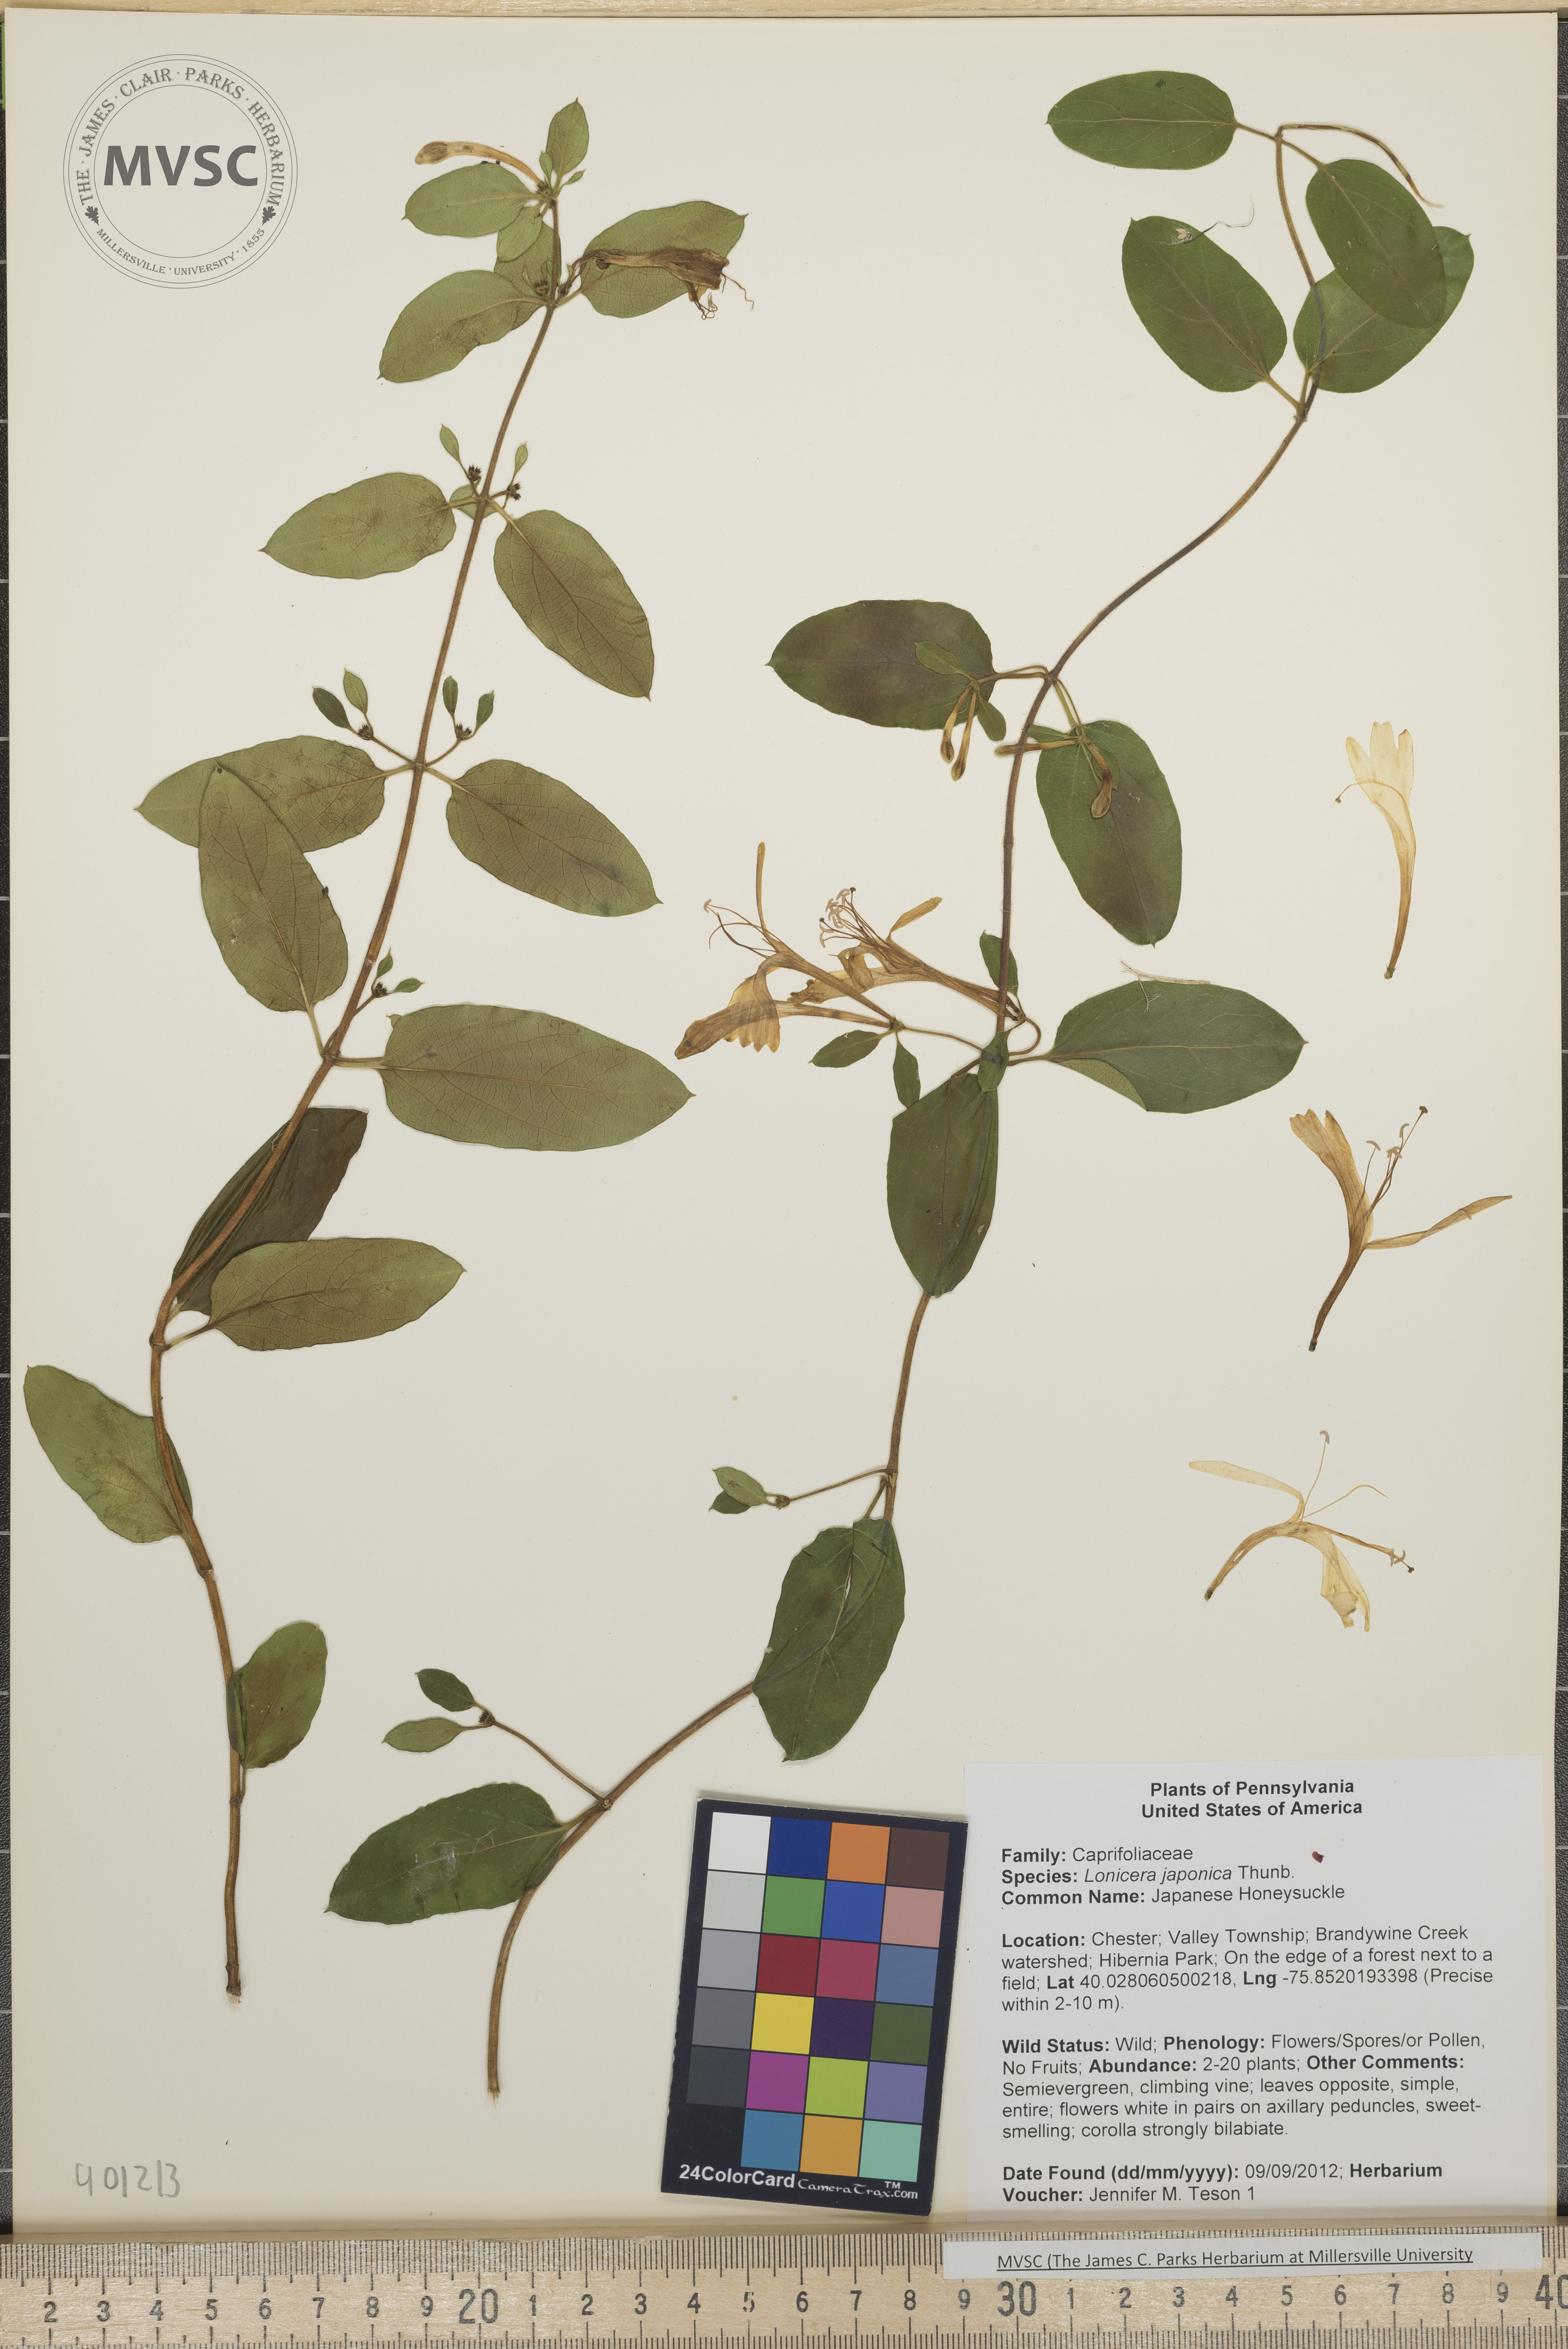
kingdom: Plantae
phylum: Tracheophyta
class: Magnoliopsida
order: Dipsacales
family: Caprifoliaceae
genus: Lonicera
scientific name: Lonicera japonica
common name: Japanese Honeysuckle
